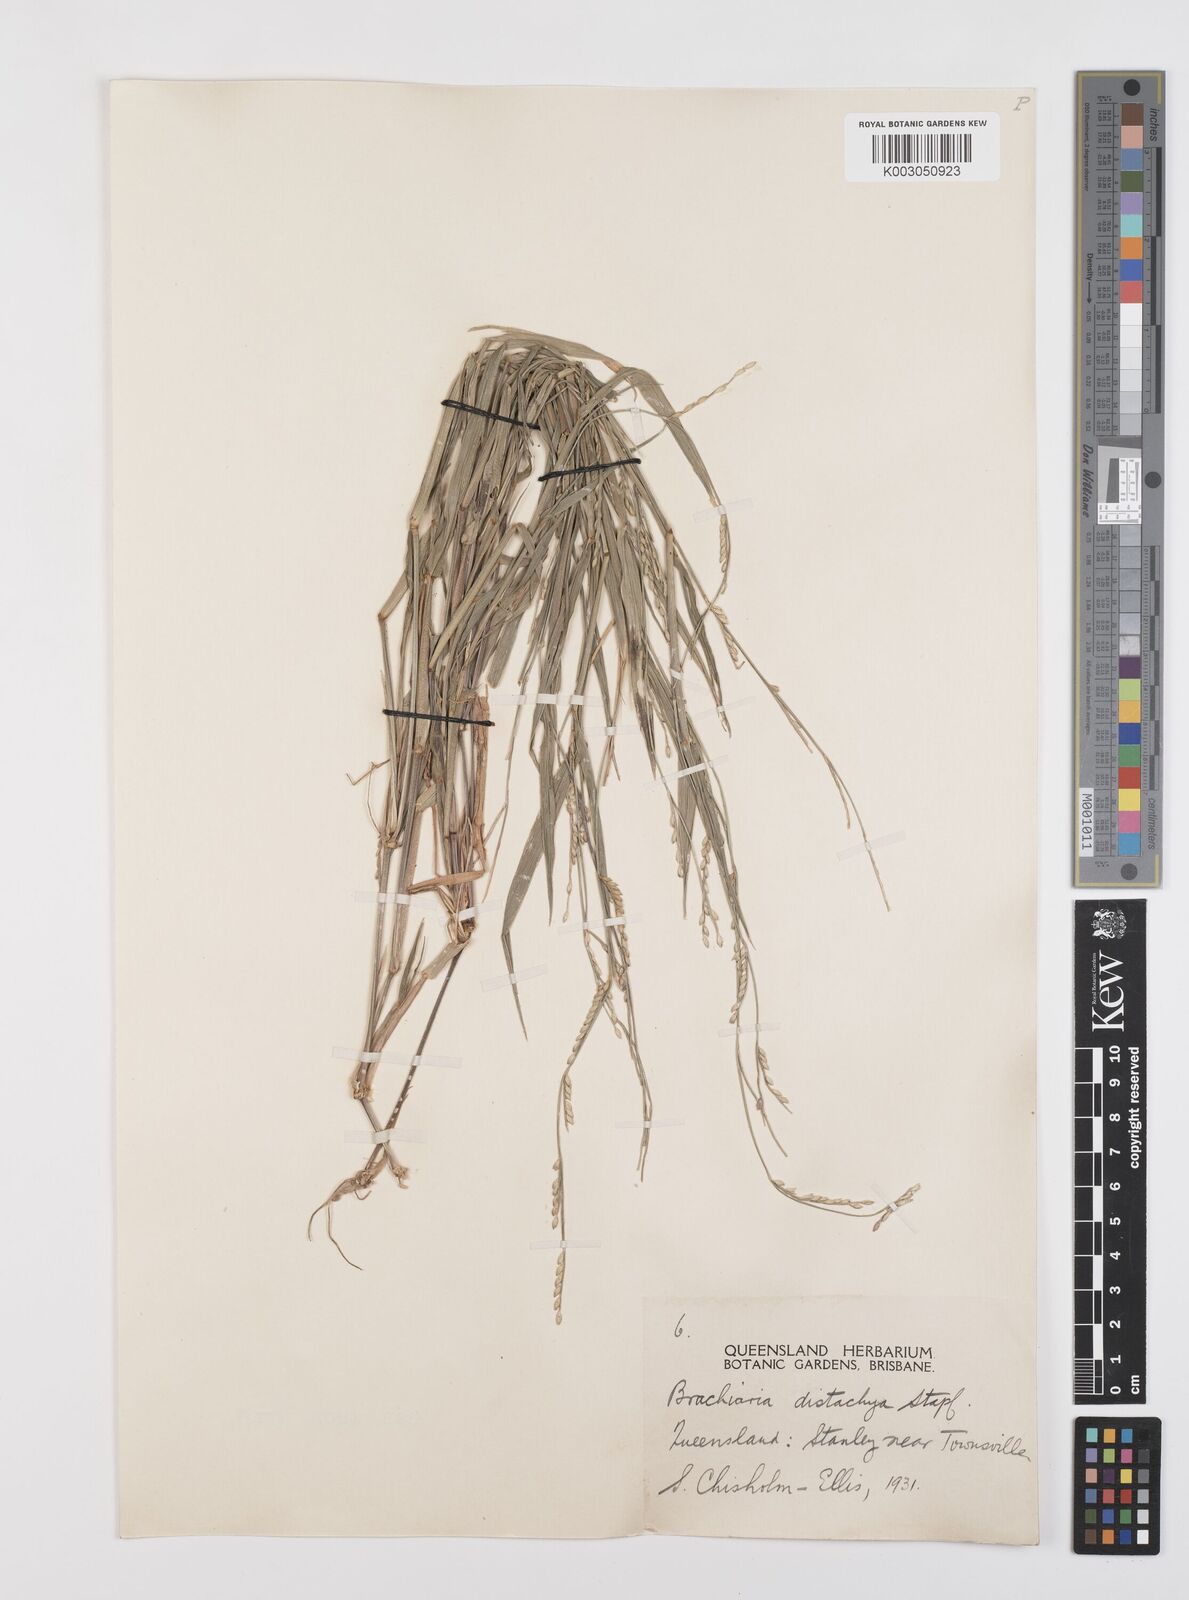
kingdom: Plantae
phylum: Tracheophyta
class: Liliopsida
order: Poales
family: Poaceae
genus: Urochloa
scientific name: Urochloa subquadripara
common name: Armgrass millet
